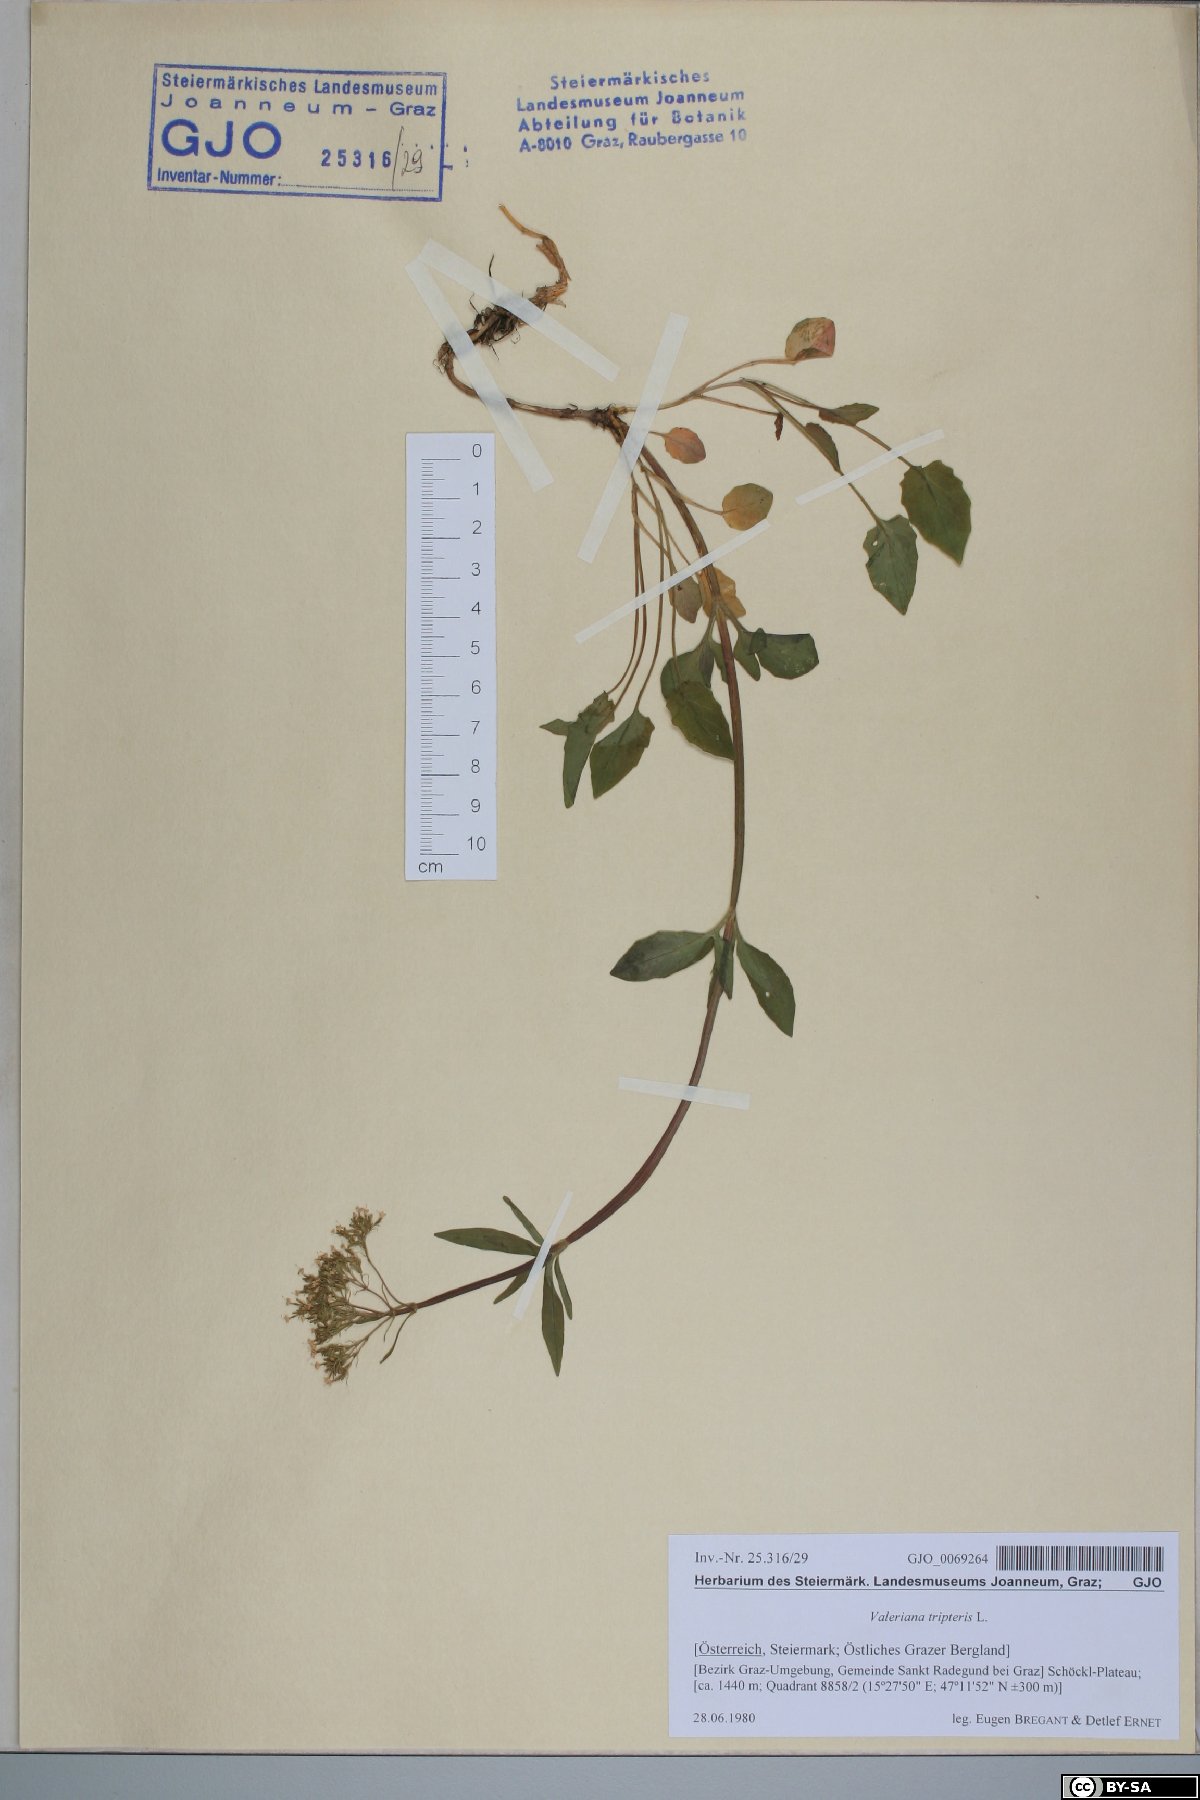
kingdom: Plantae
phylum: Tracheophyta
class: Magnoliopsida
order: Dipsacales
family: Caprifoliaceae
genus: Valeriana
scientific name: Valeriana tripteris
